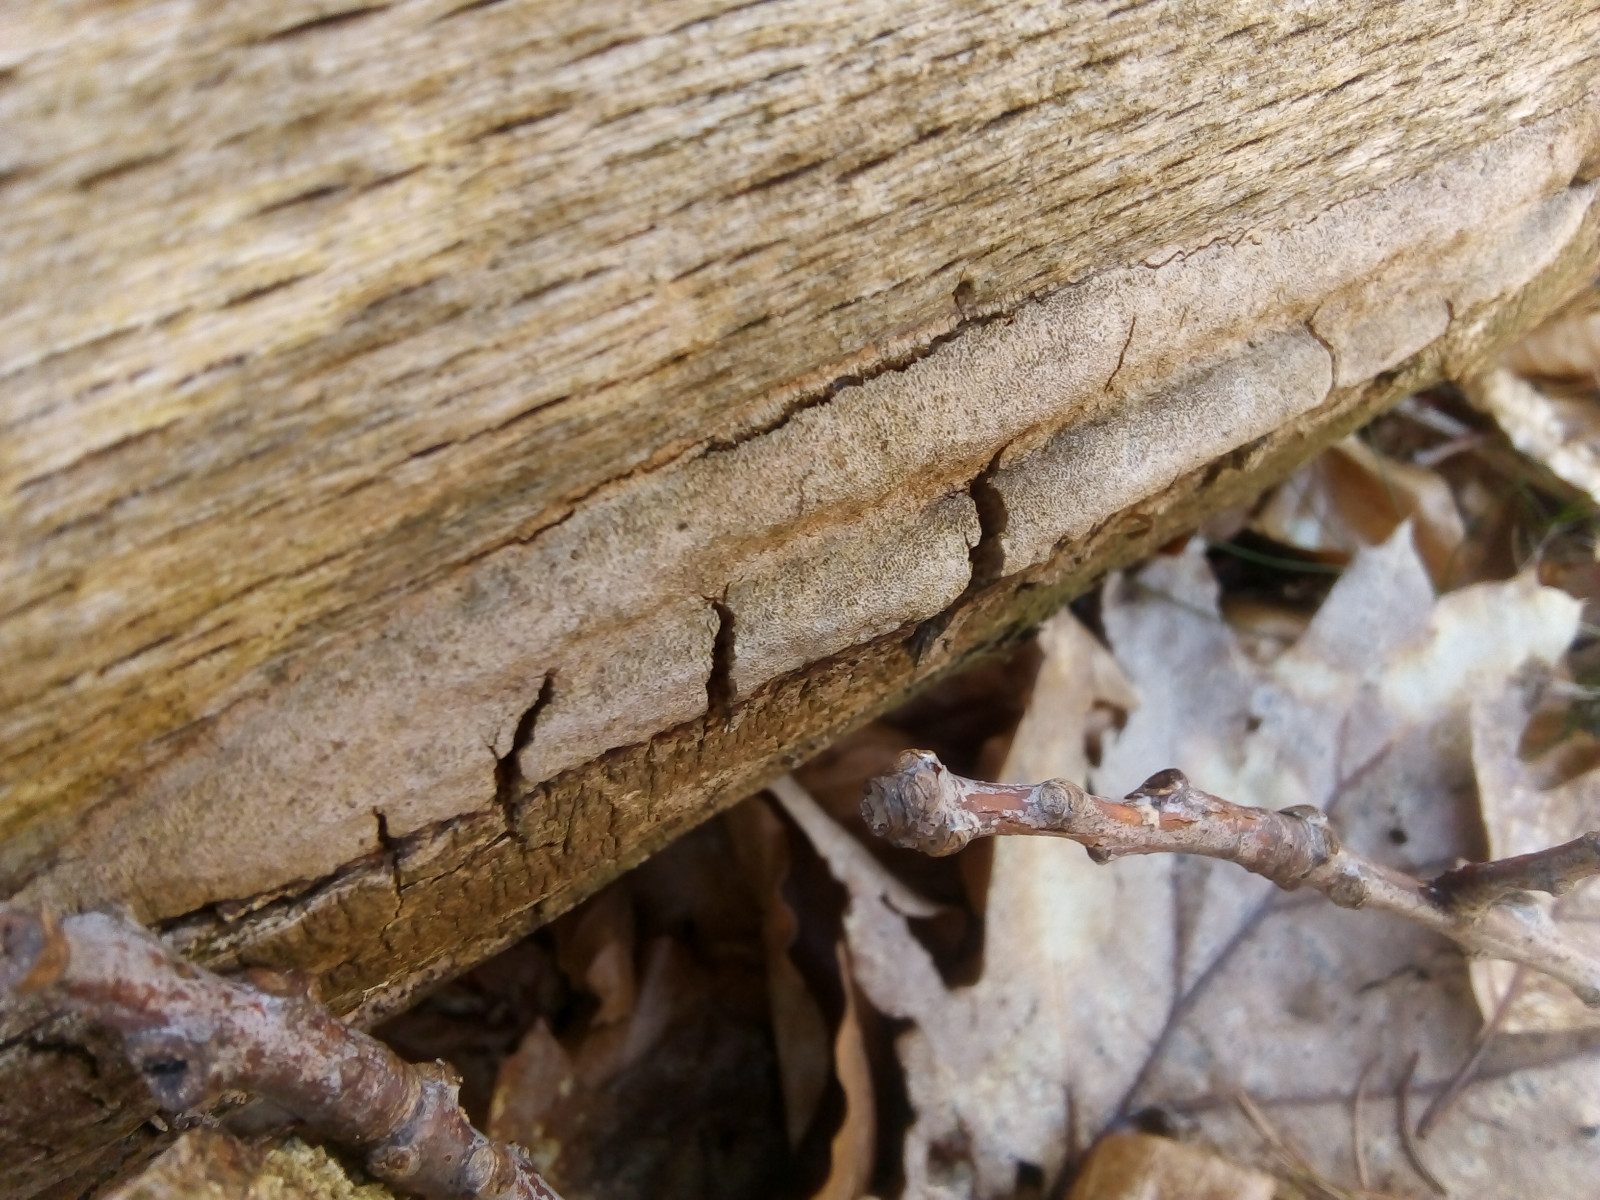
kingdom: Fungi
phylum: Basidiomycota
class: Agaricomycetes
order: Polyporales
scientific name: Polyporales
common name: poresvampordenen
